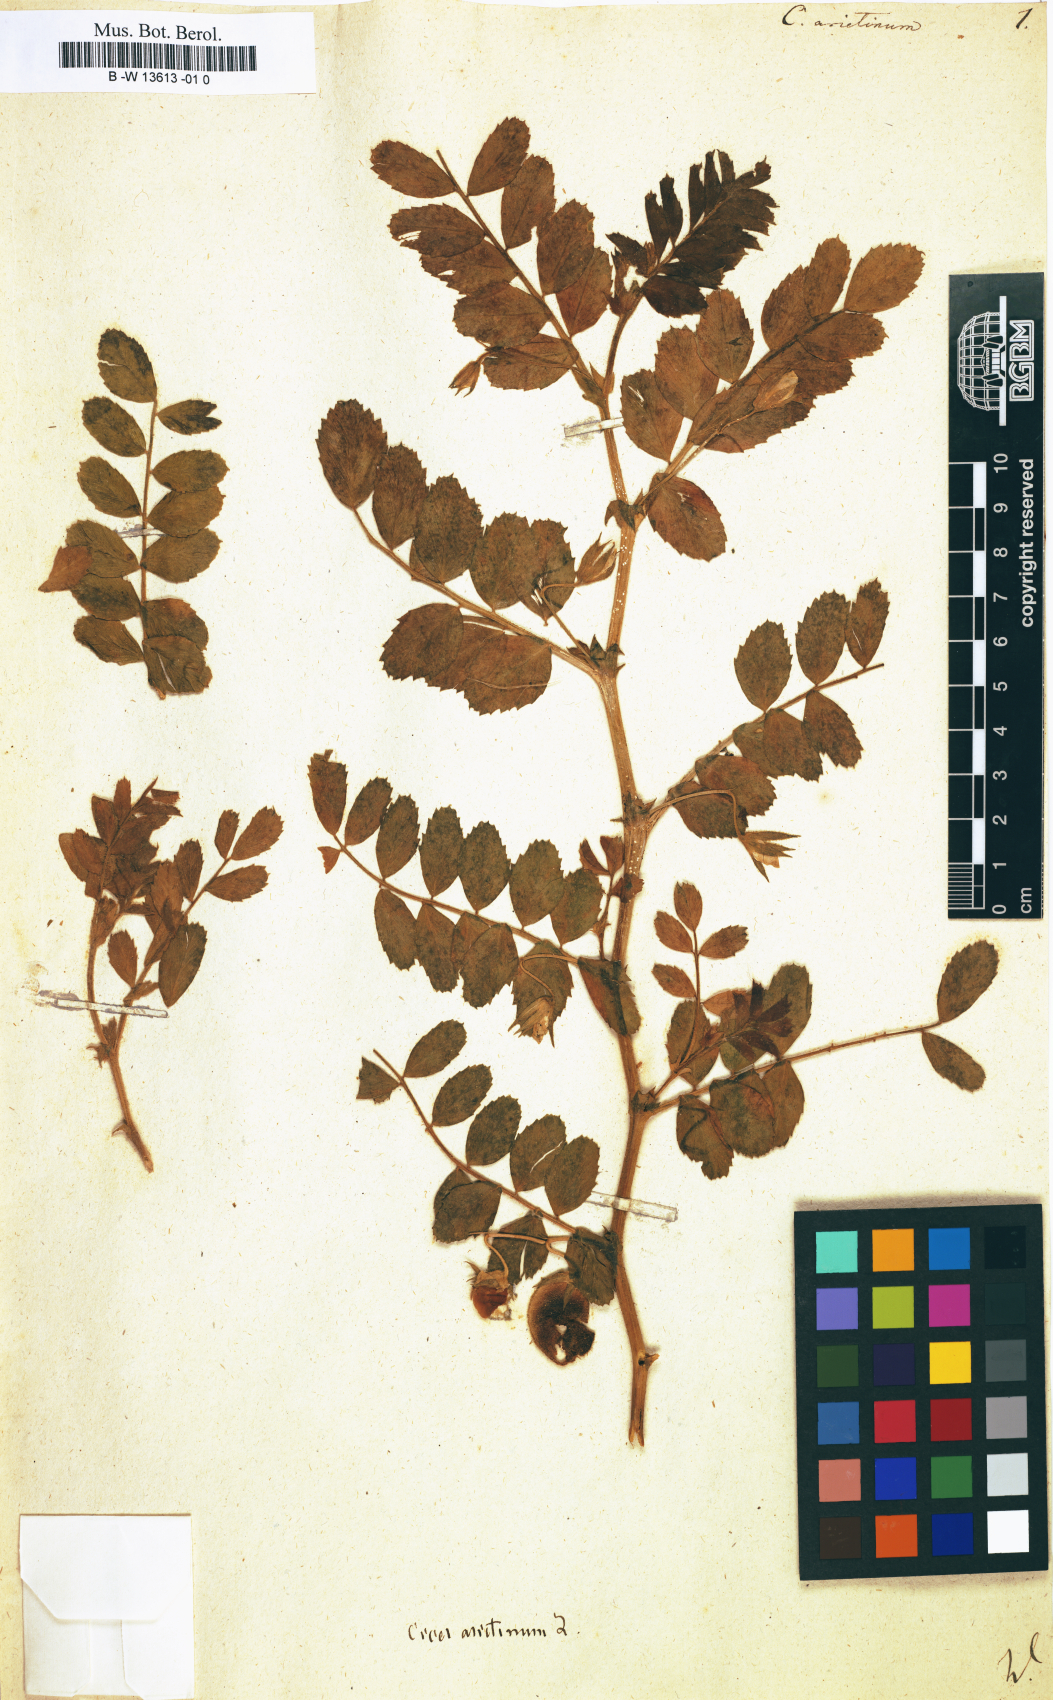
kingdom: Plantae
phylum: Tracheophyta
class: Magnoliopsida
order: Fabales
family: Fabaceae
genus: Cicer
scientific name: Cicer arietinum
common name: Chick pea
